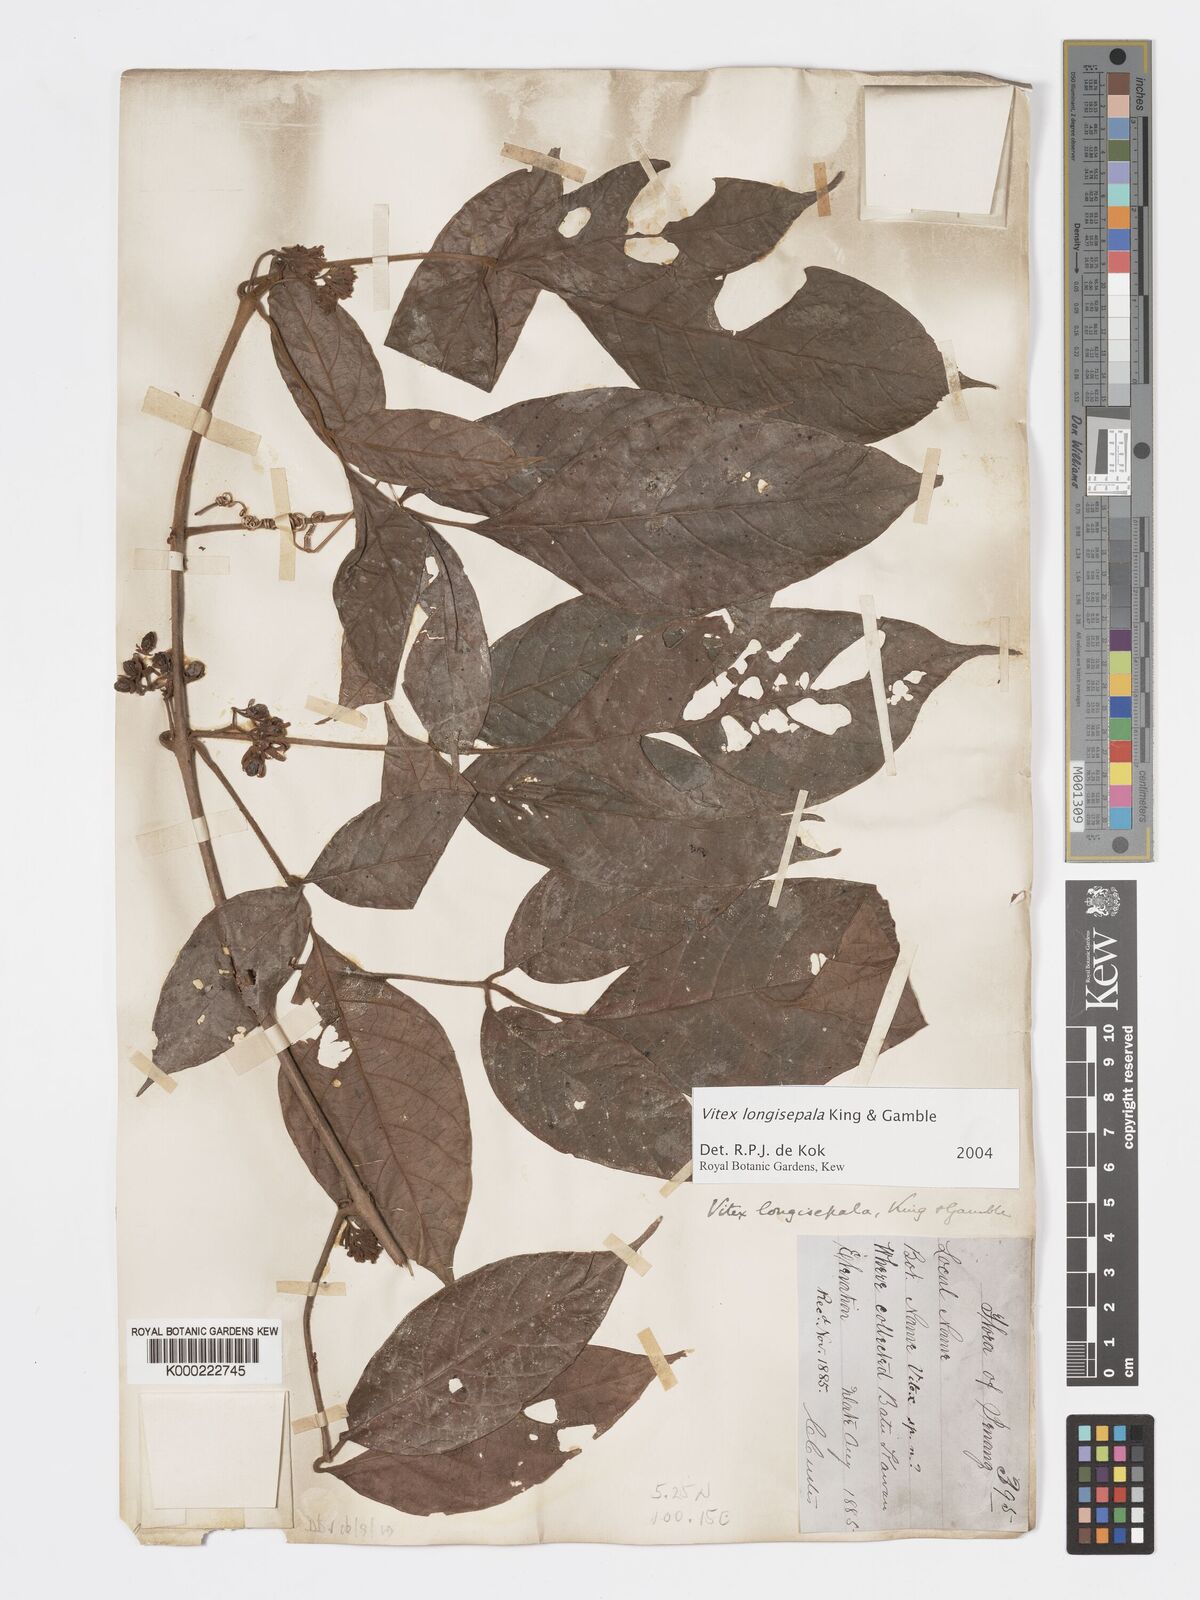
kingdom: Plantae
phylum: Tracheophyta
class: Magnoliopsida
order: Lamiales
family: Lamiaceae
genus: Vitex
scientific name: Vitex longisepala
